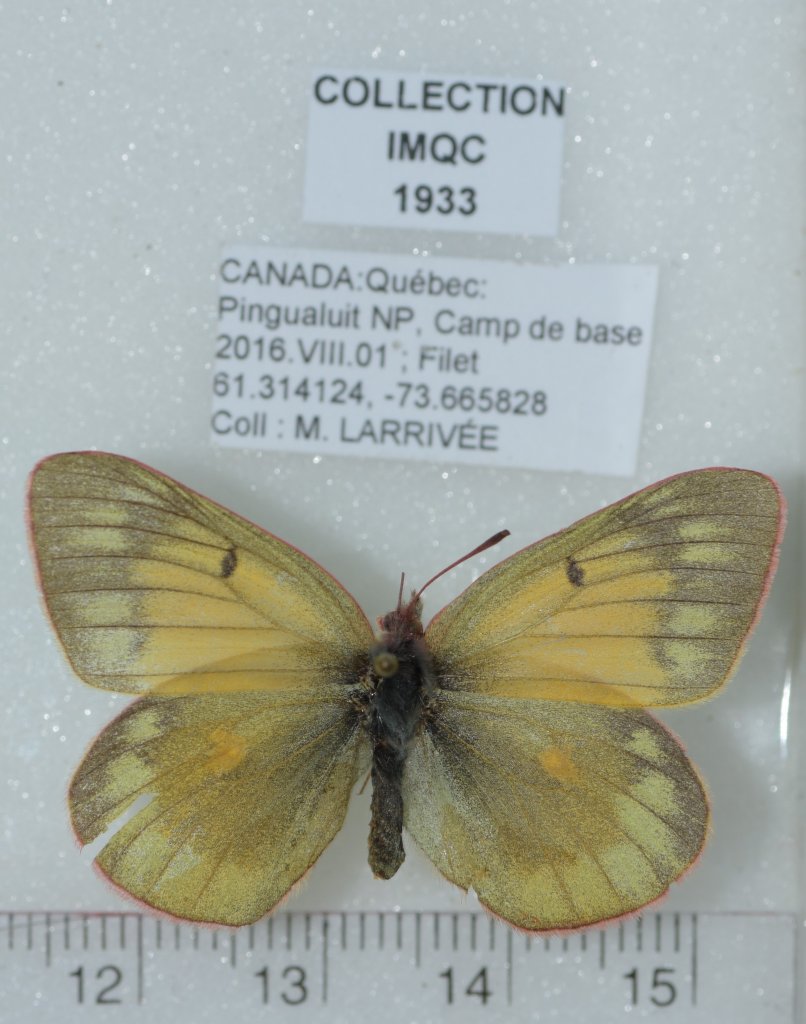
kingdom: Animalia
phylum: Arthropoda
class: Insecta
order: Lepidoptera
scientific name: Lepidoptera
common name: Butterflies
